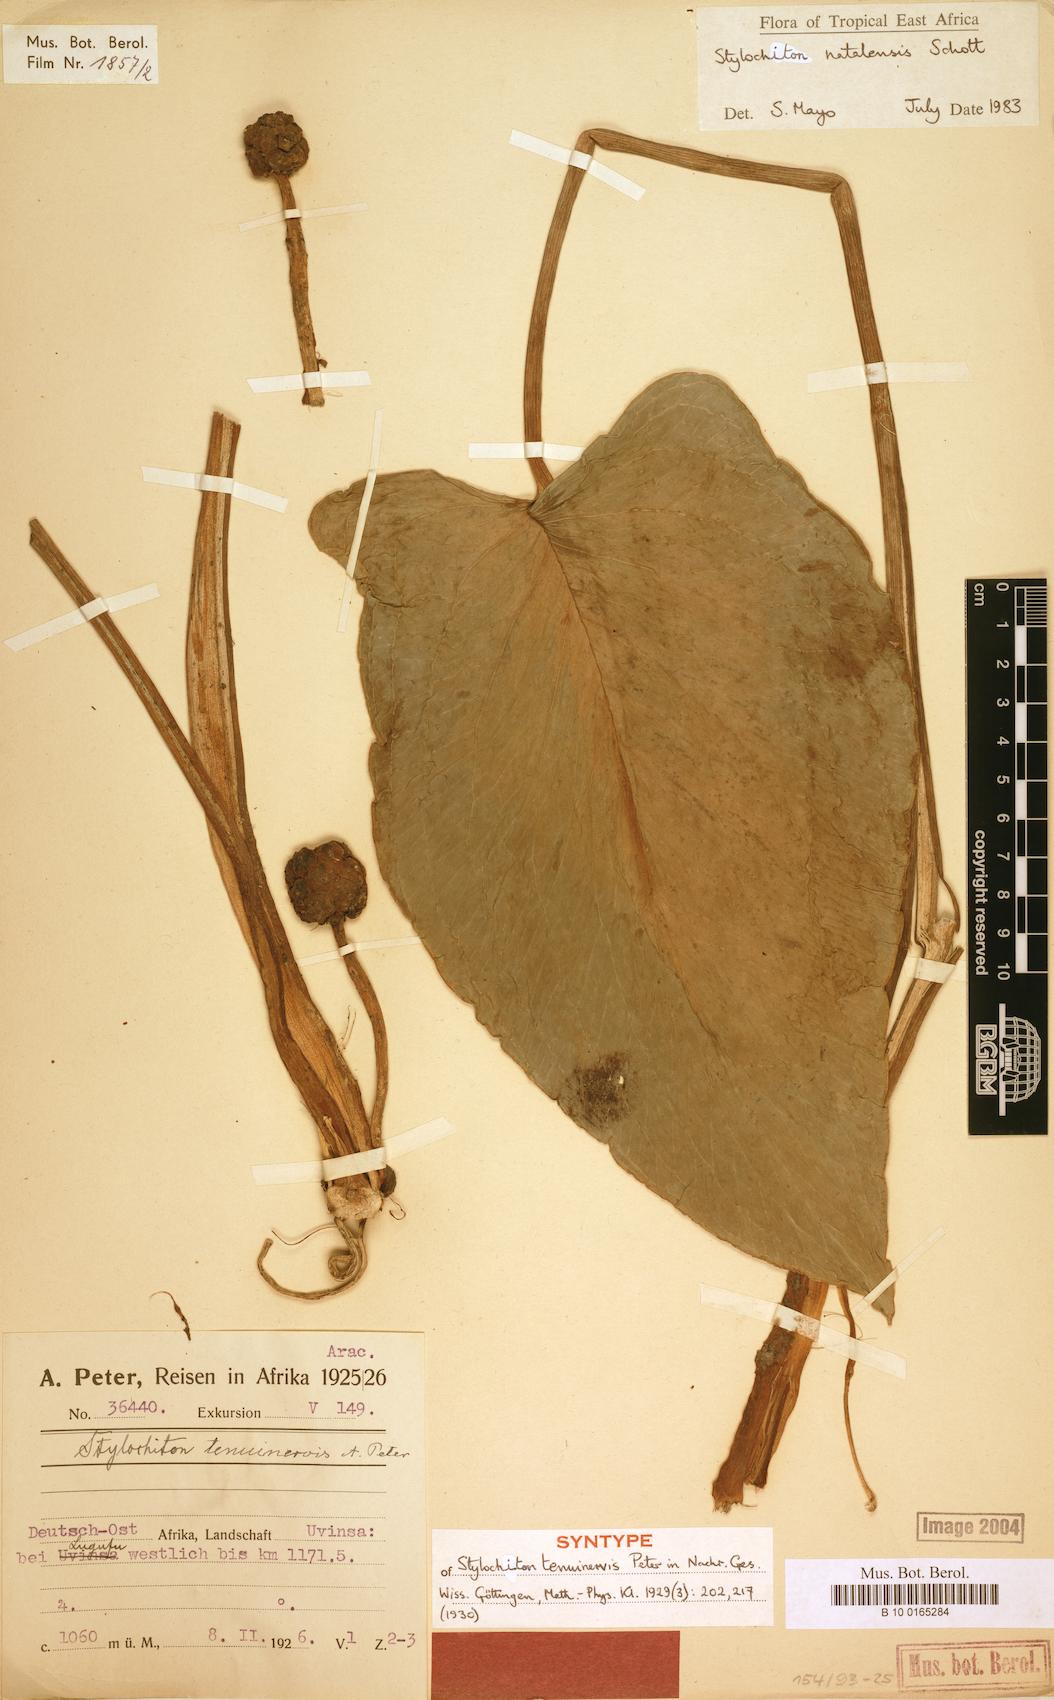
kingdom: Plantae
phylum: Tracheophyta
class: Liliopsida
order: Alismatales
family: Araceae
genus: Stylochiton
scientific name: Stylochiton natalensis
